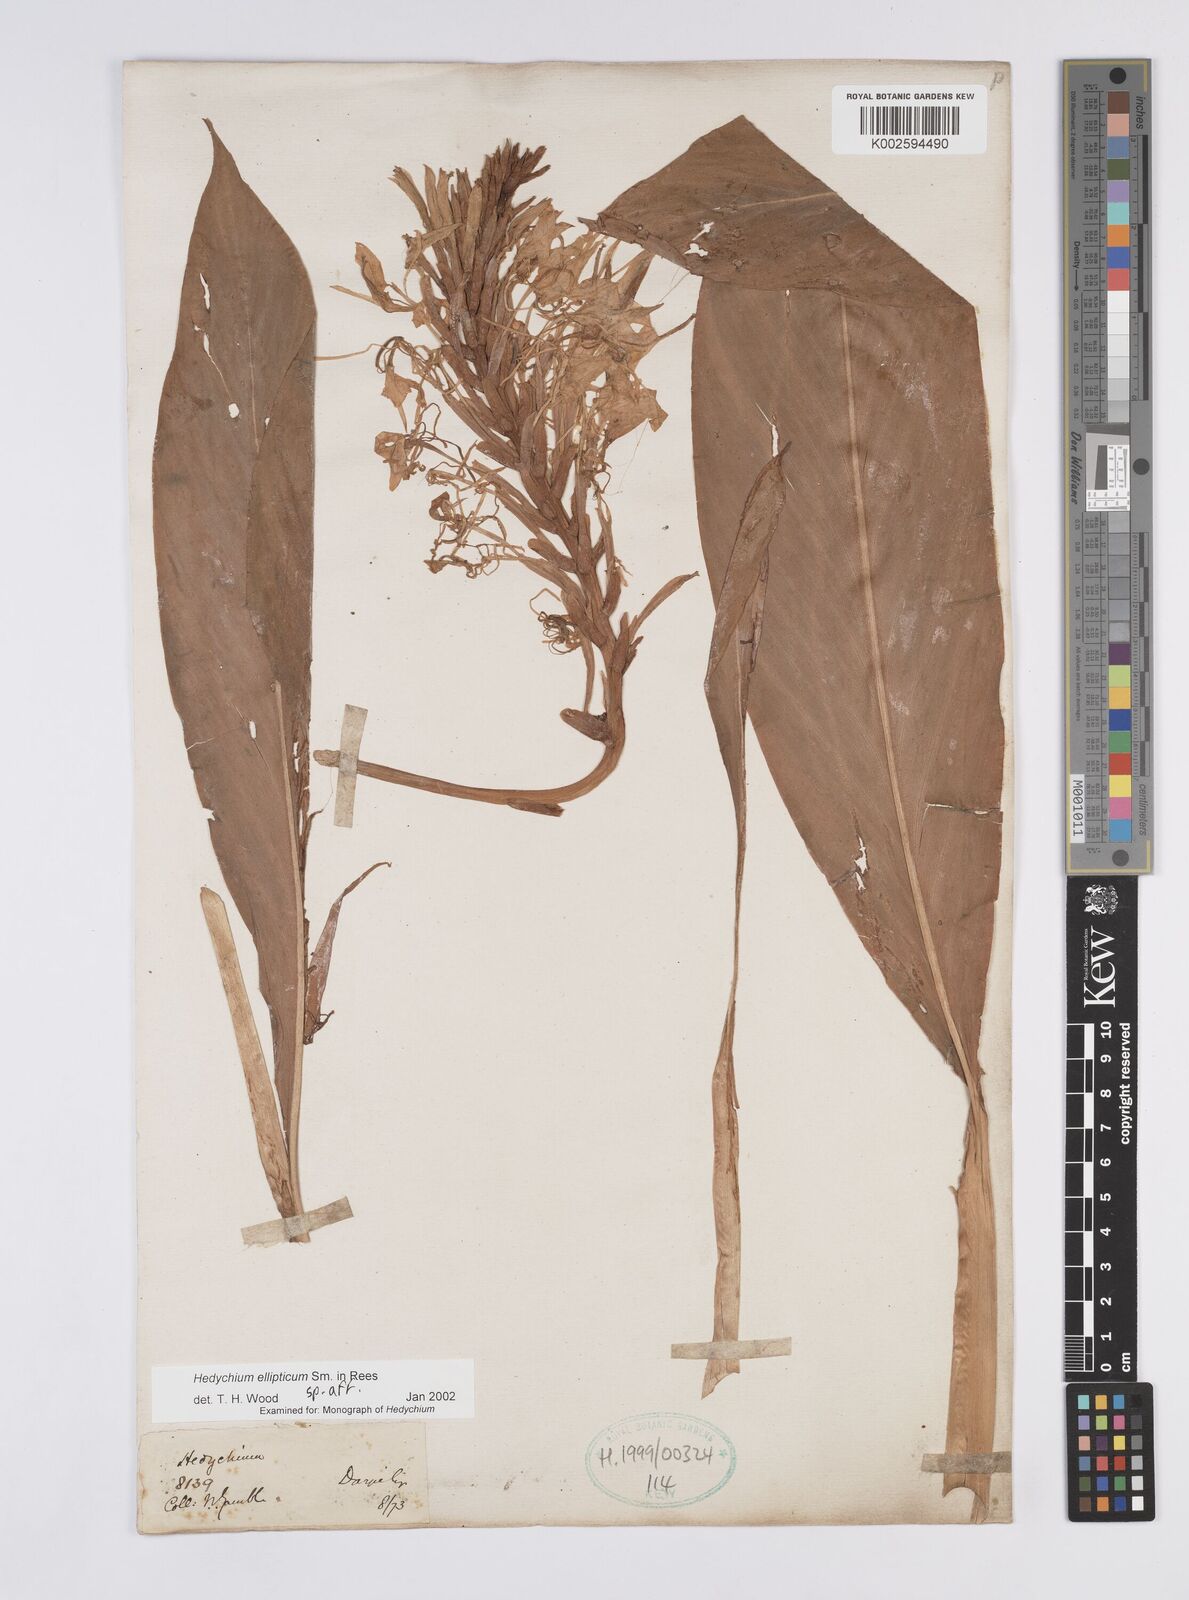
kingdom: Plantae
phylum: Tracheophyta
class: Liliopsida
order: Zingiberales
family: Zingiberaceae
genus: Hedychium
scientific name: Hedychium ellipticum
